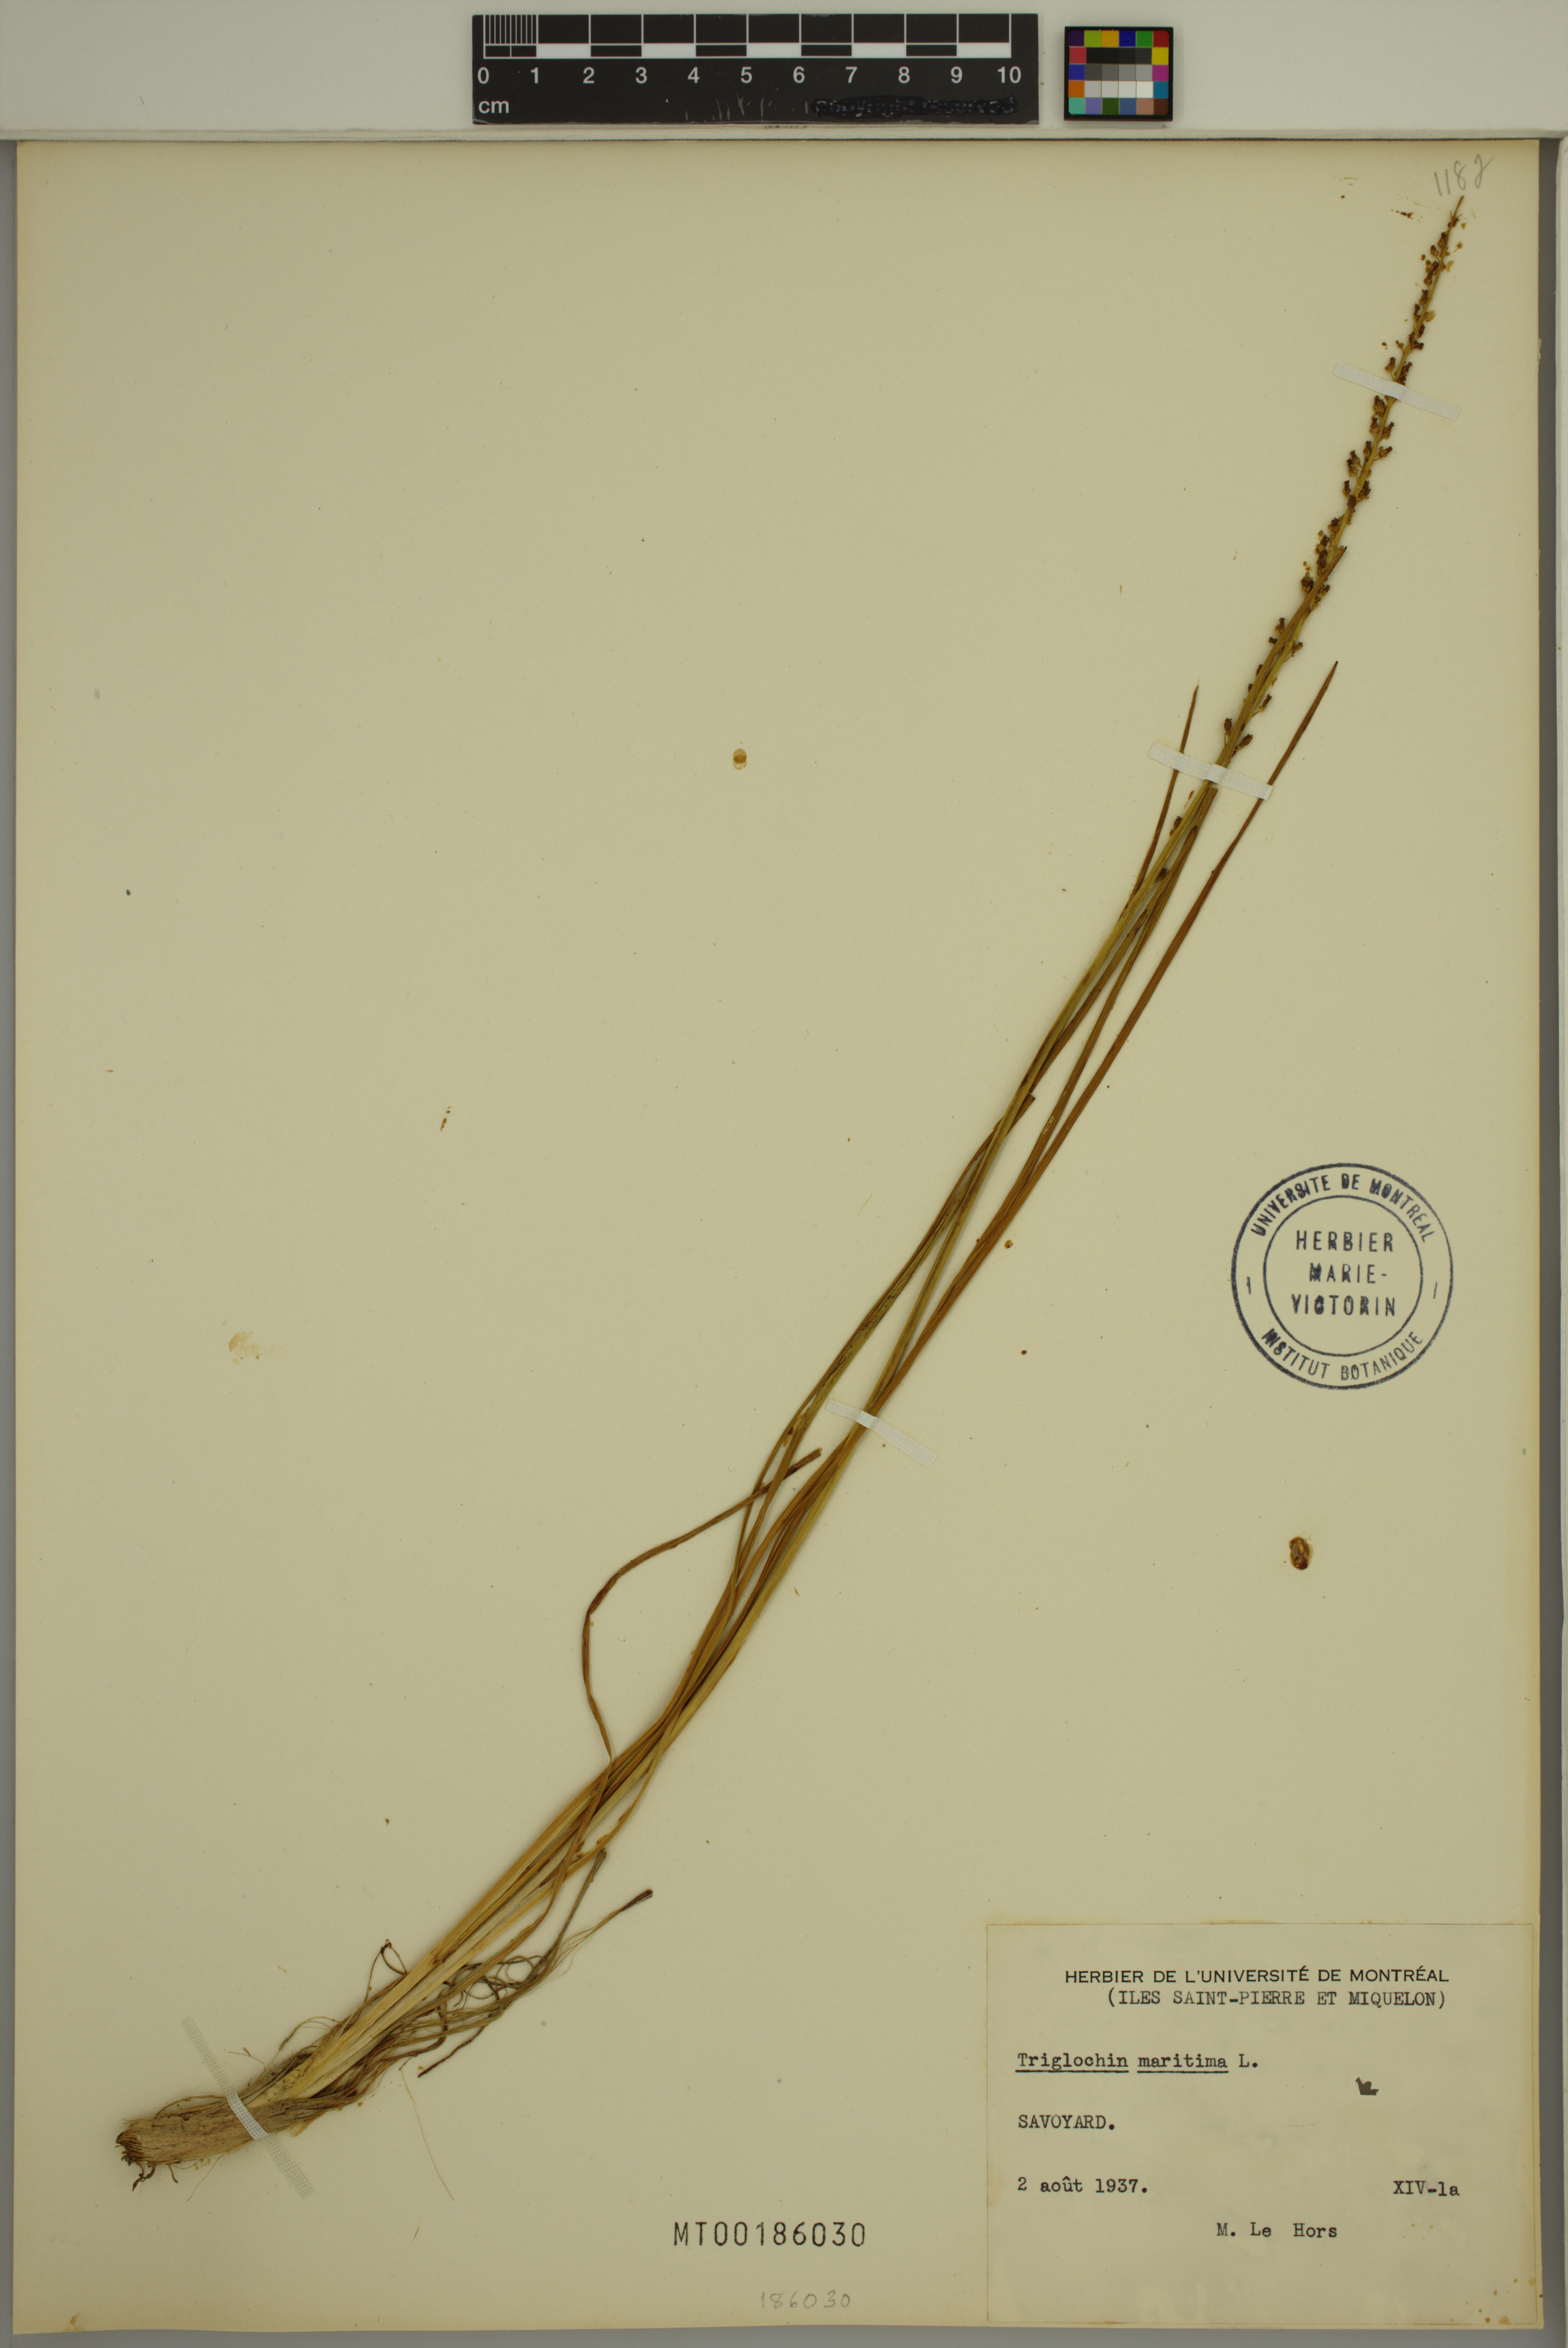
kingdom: Plantae
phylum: Tracheophyta
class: Liliopsida
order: Alismatales
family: Juncaginaceae
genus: Triglochin
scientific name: Triglochin maritima
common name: Sea arrowgrass
